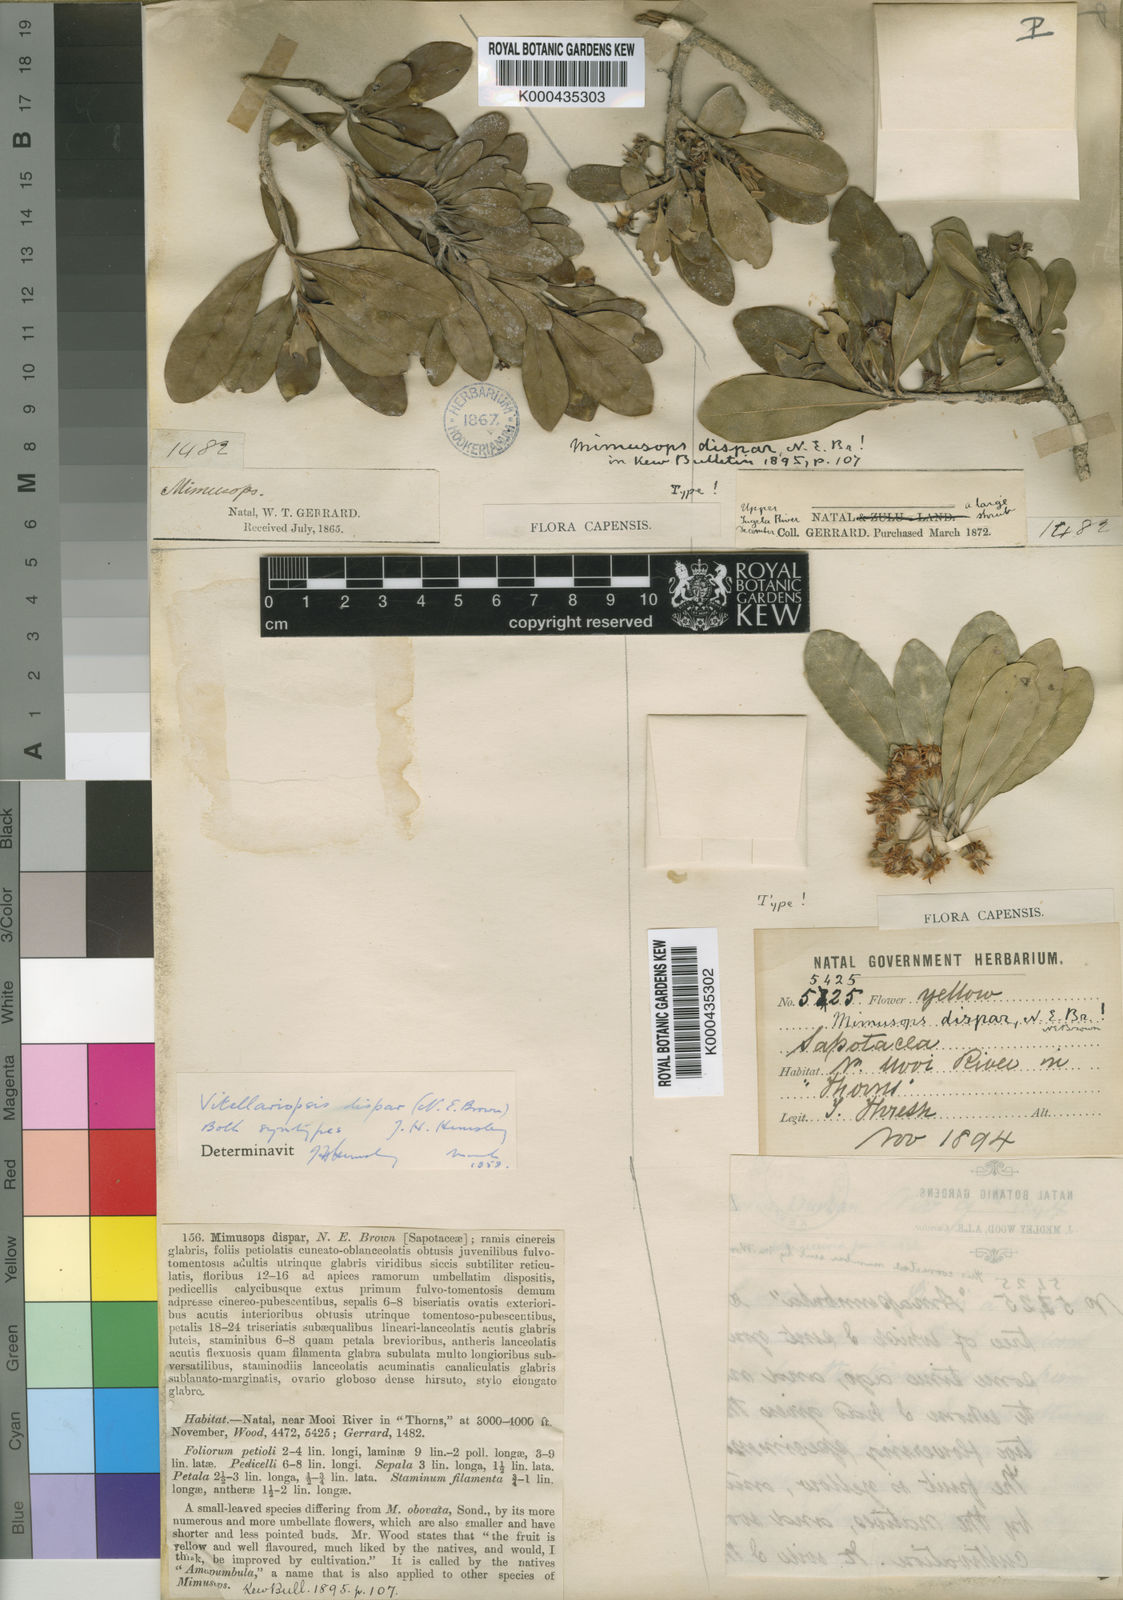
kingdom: Plantae
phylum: Tracheophyta
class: Magnoliopsida
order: Ericales
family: Sapotaceae
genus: Vitellariopsis
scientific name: Vitellariopsis
